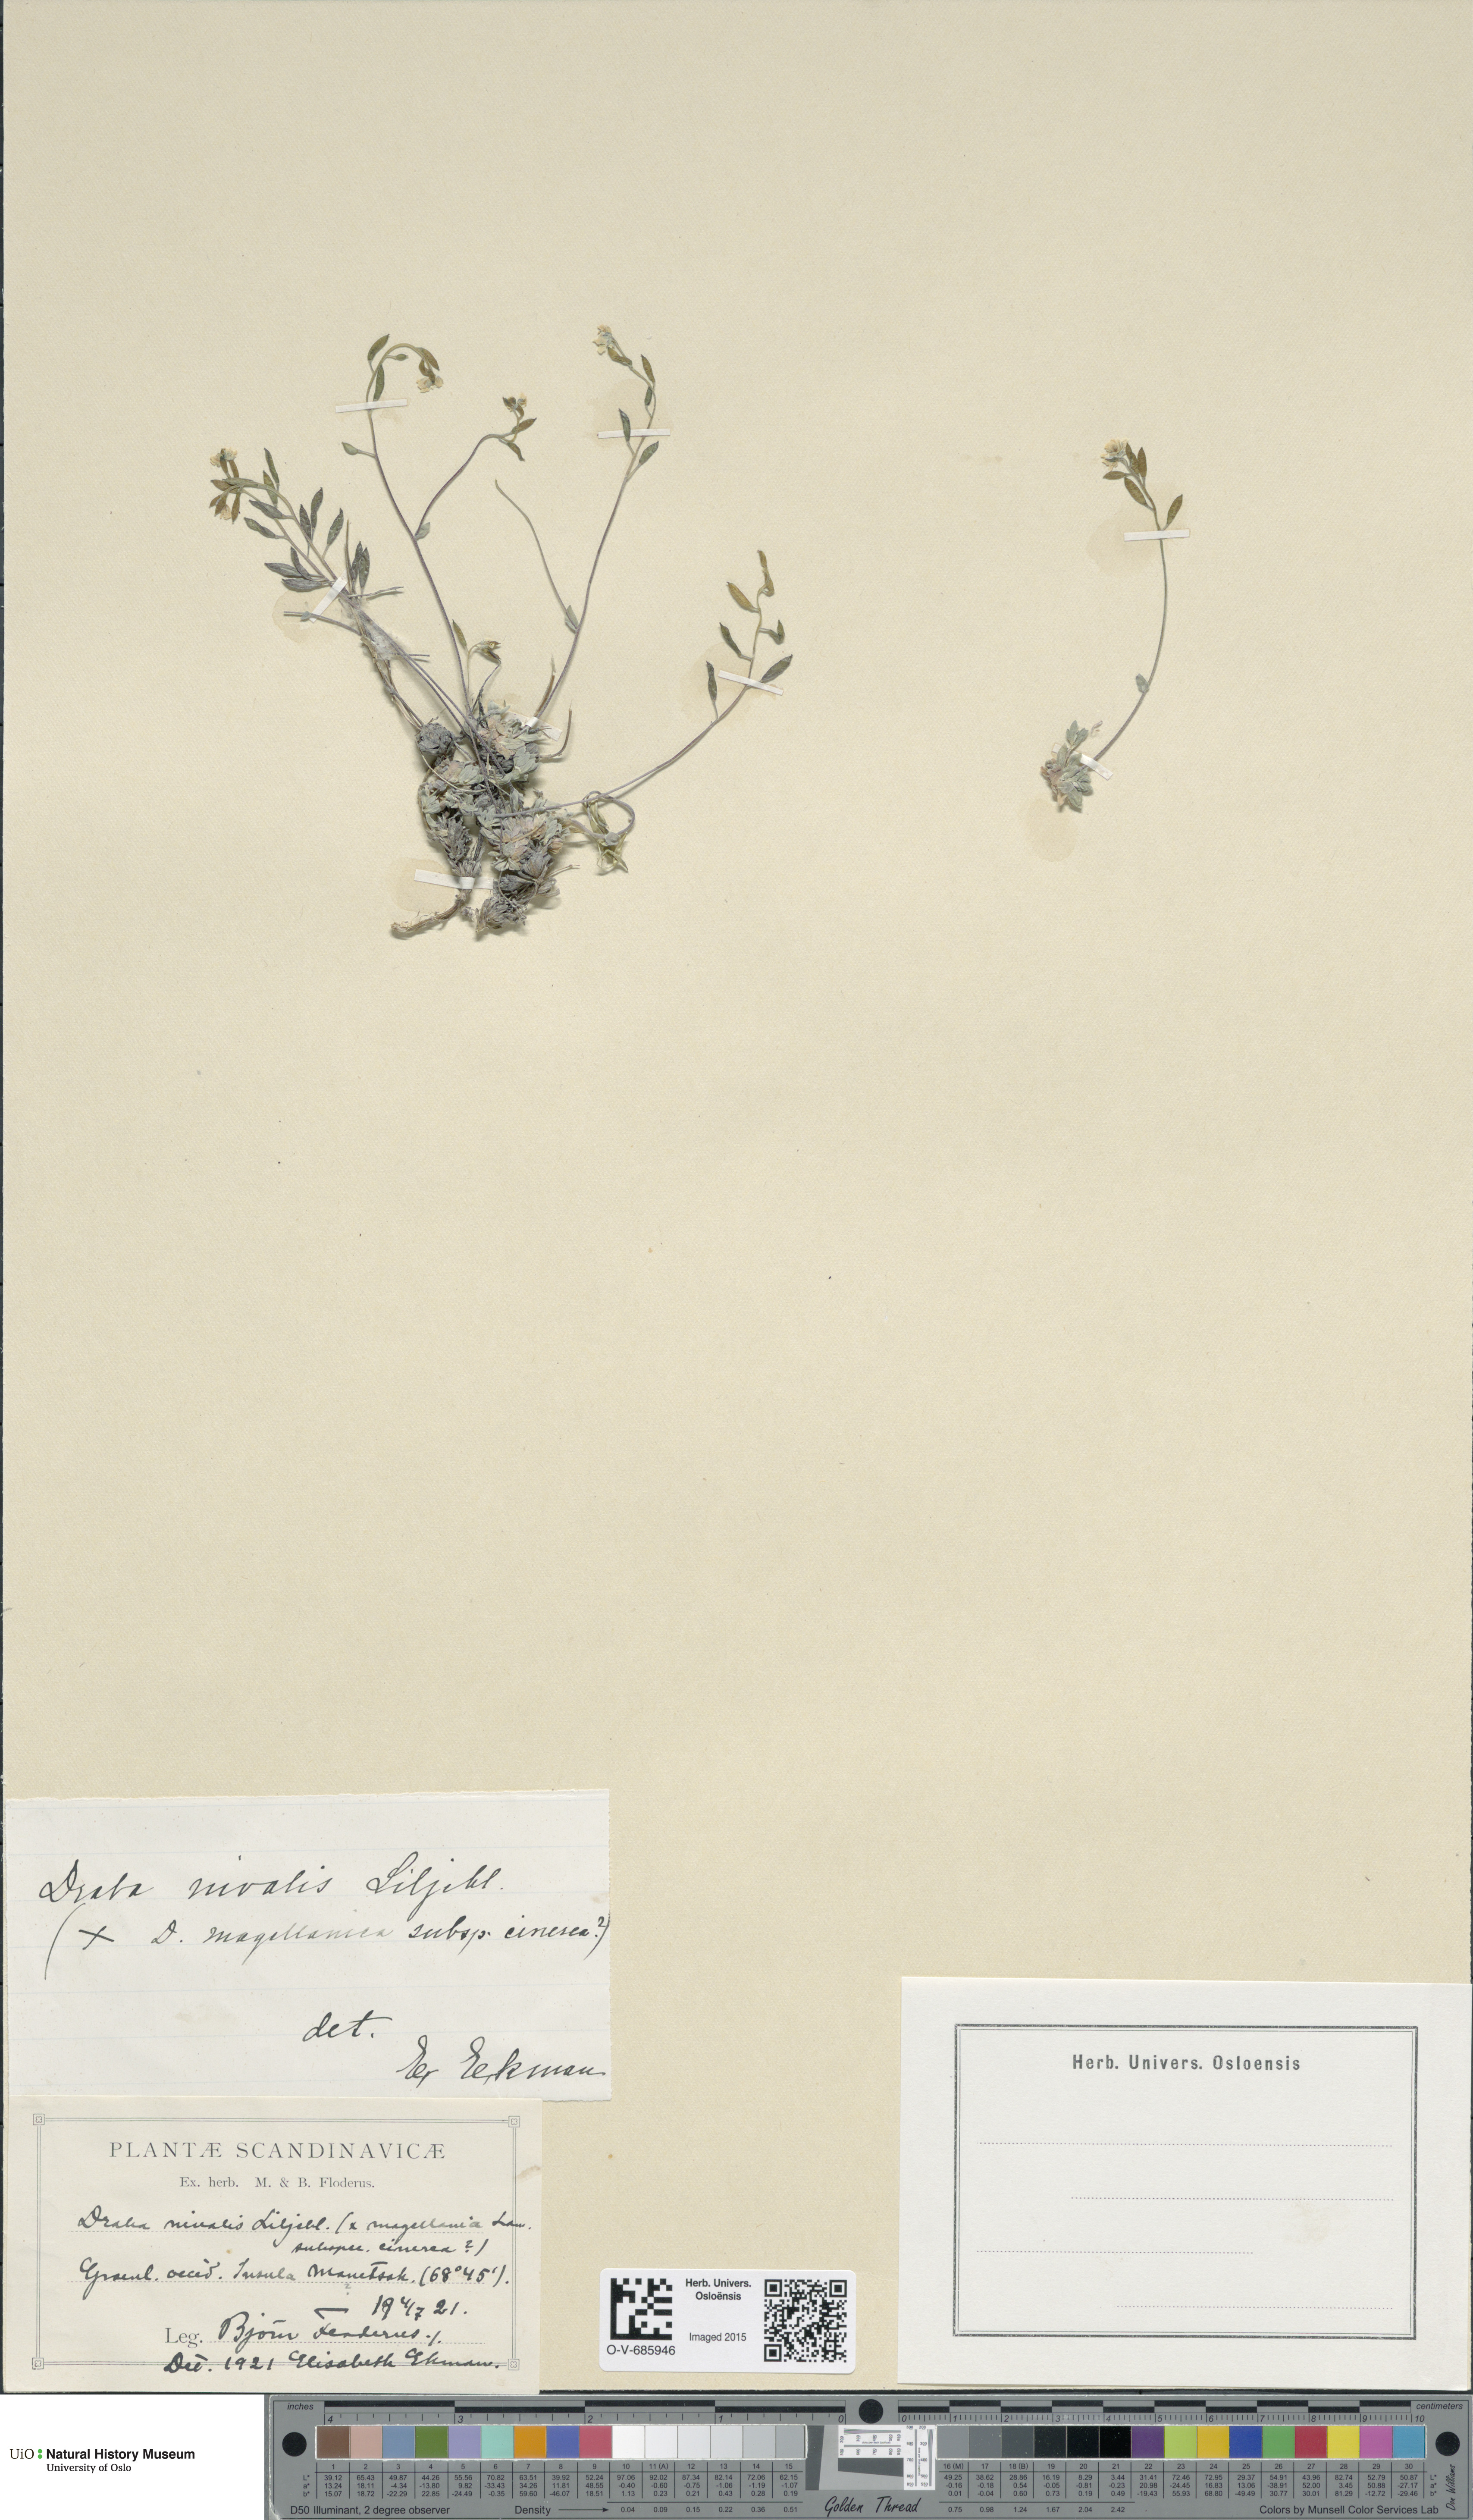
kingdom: Plantae
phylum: Tracheophyta
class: Magnoliopsida
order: Brassicales
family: Brassicaceae
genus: Draba
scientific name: Draba nivalis
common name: Snow draba
